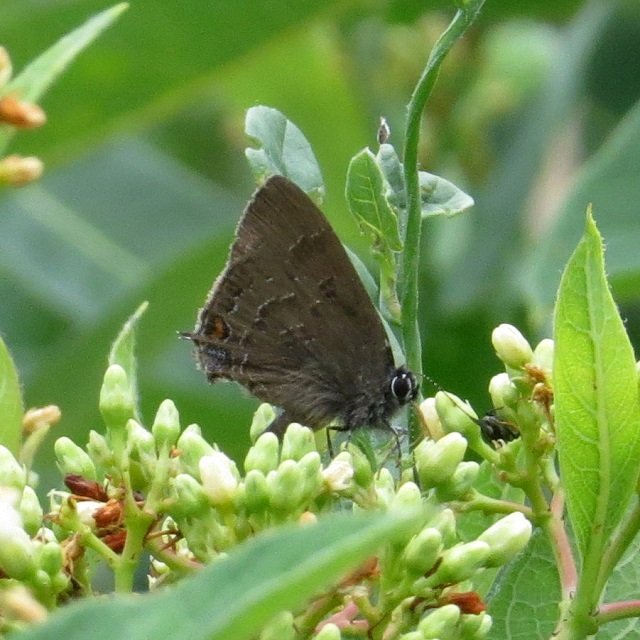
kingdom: Animalia
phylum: Arthropoda
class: Insecta
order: Lepidoptera
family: Lycaenidae
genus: Satyrium
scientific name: Satyrium calanus
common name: Banded Hairstreak
